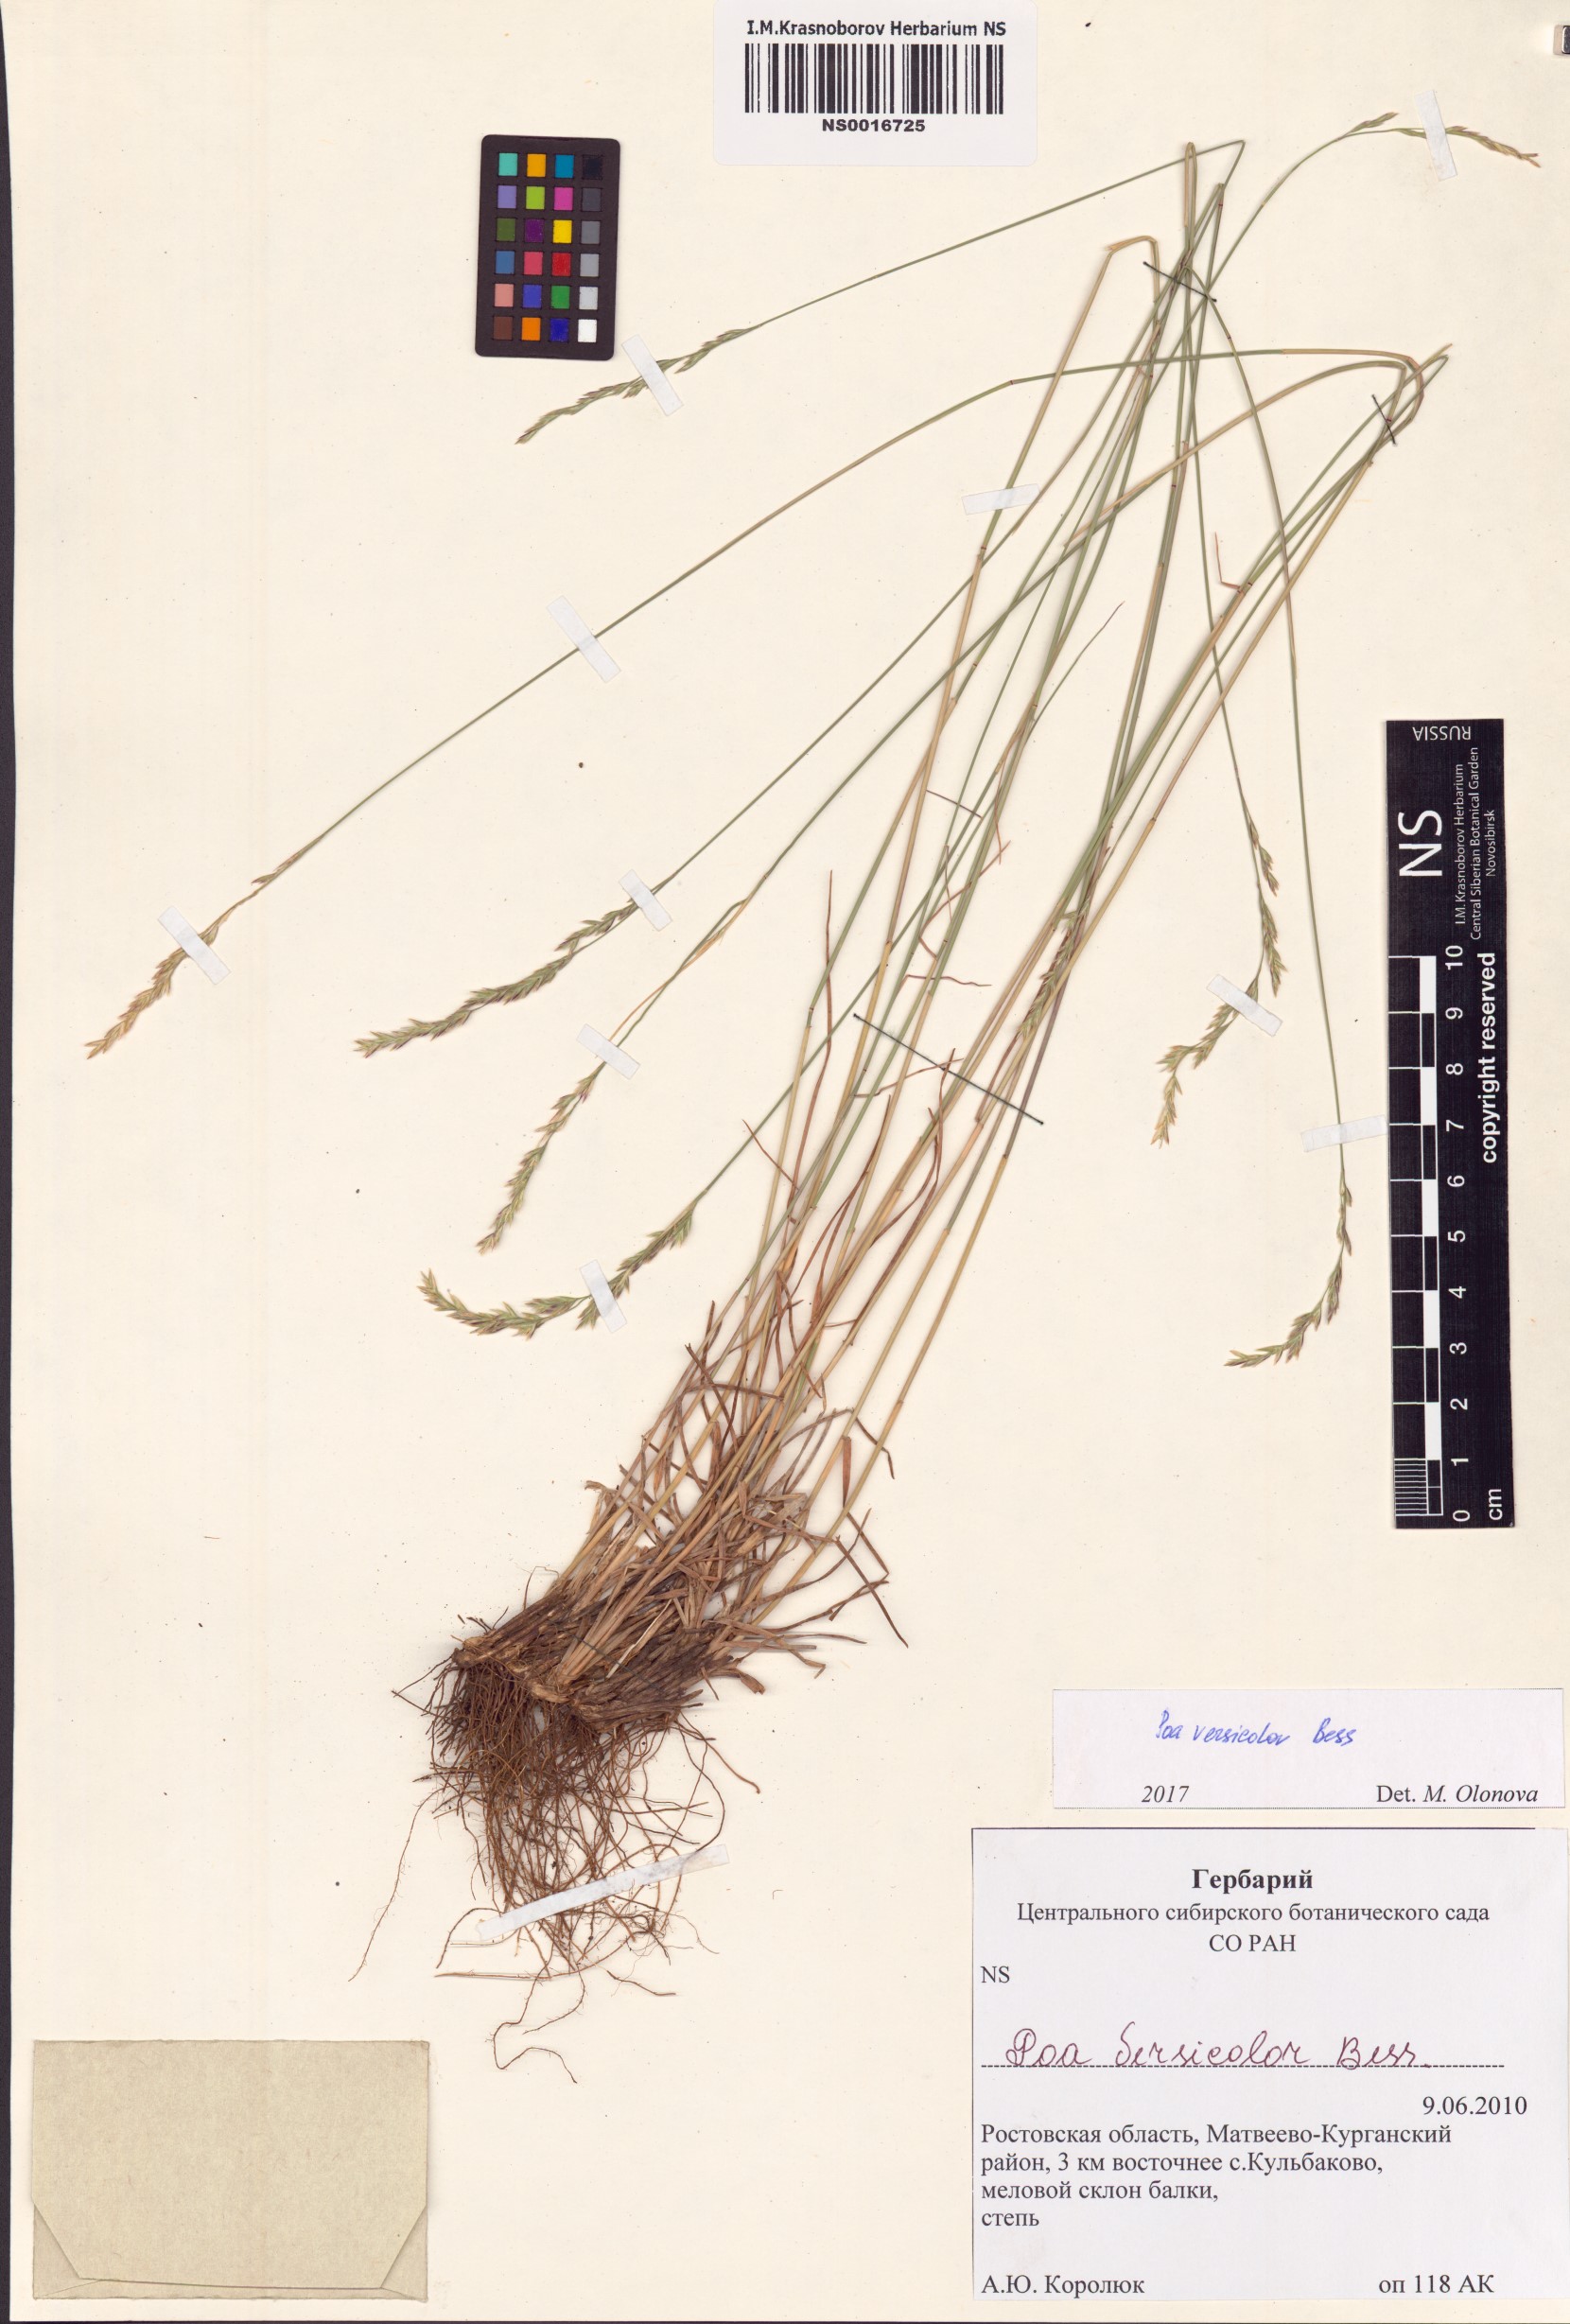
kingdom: Plantae
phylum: Tracheophyta
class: Liliopsida
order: Poales
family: Poaceae
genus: Poa
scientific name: Poa versicolor
